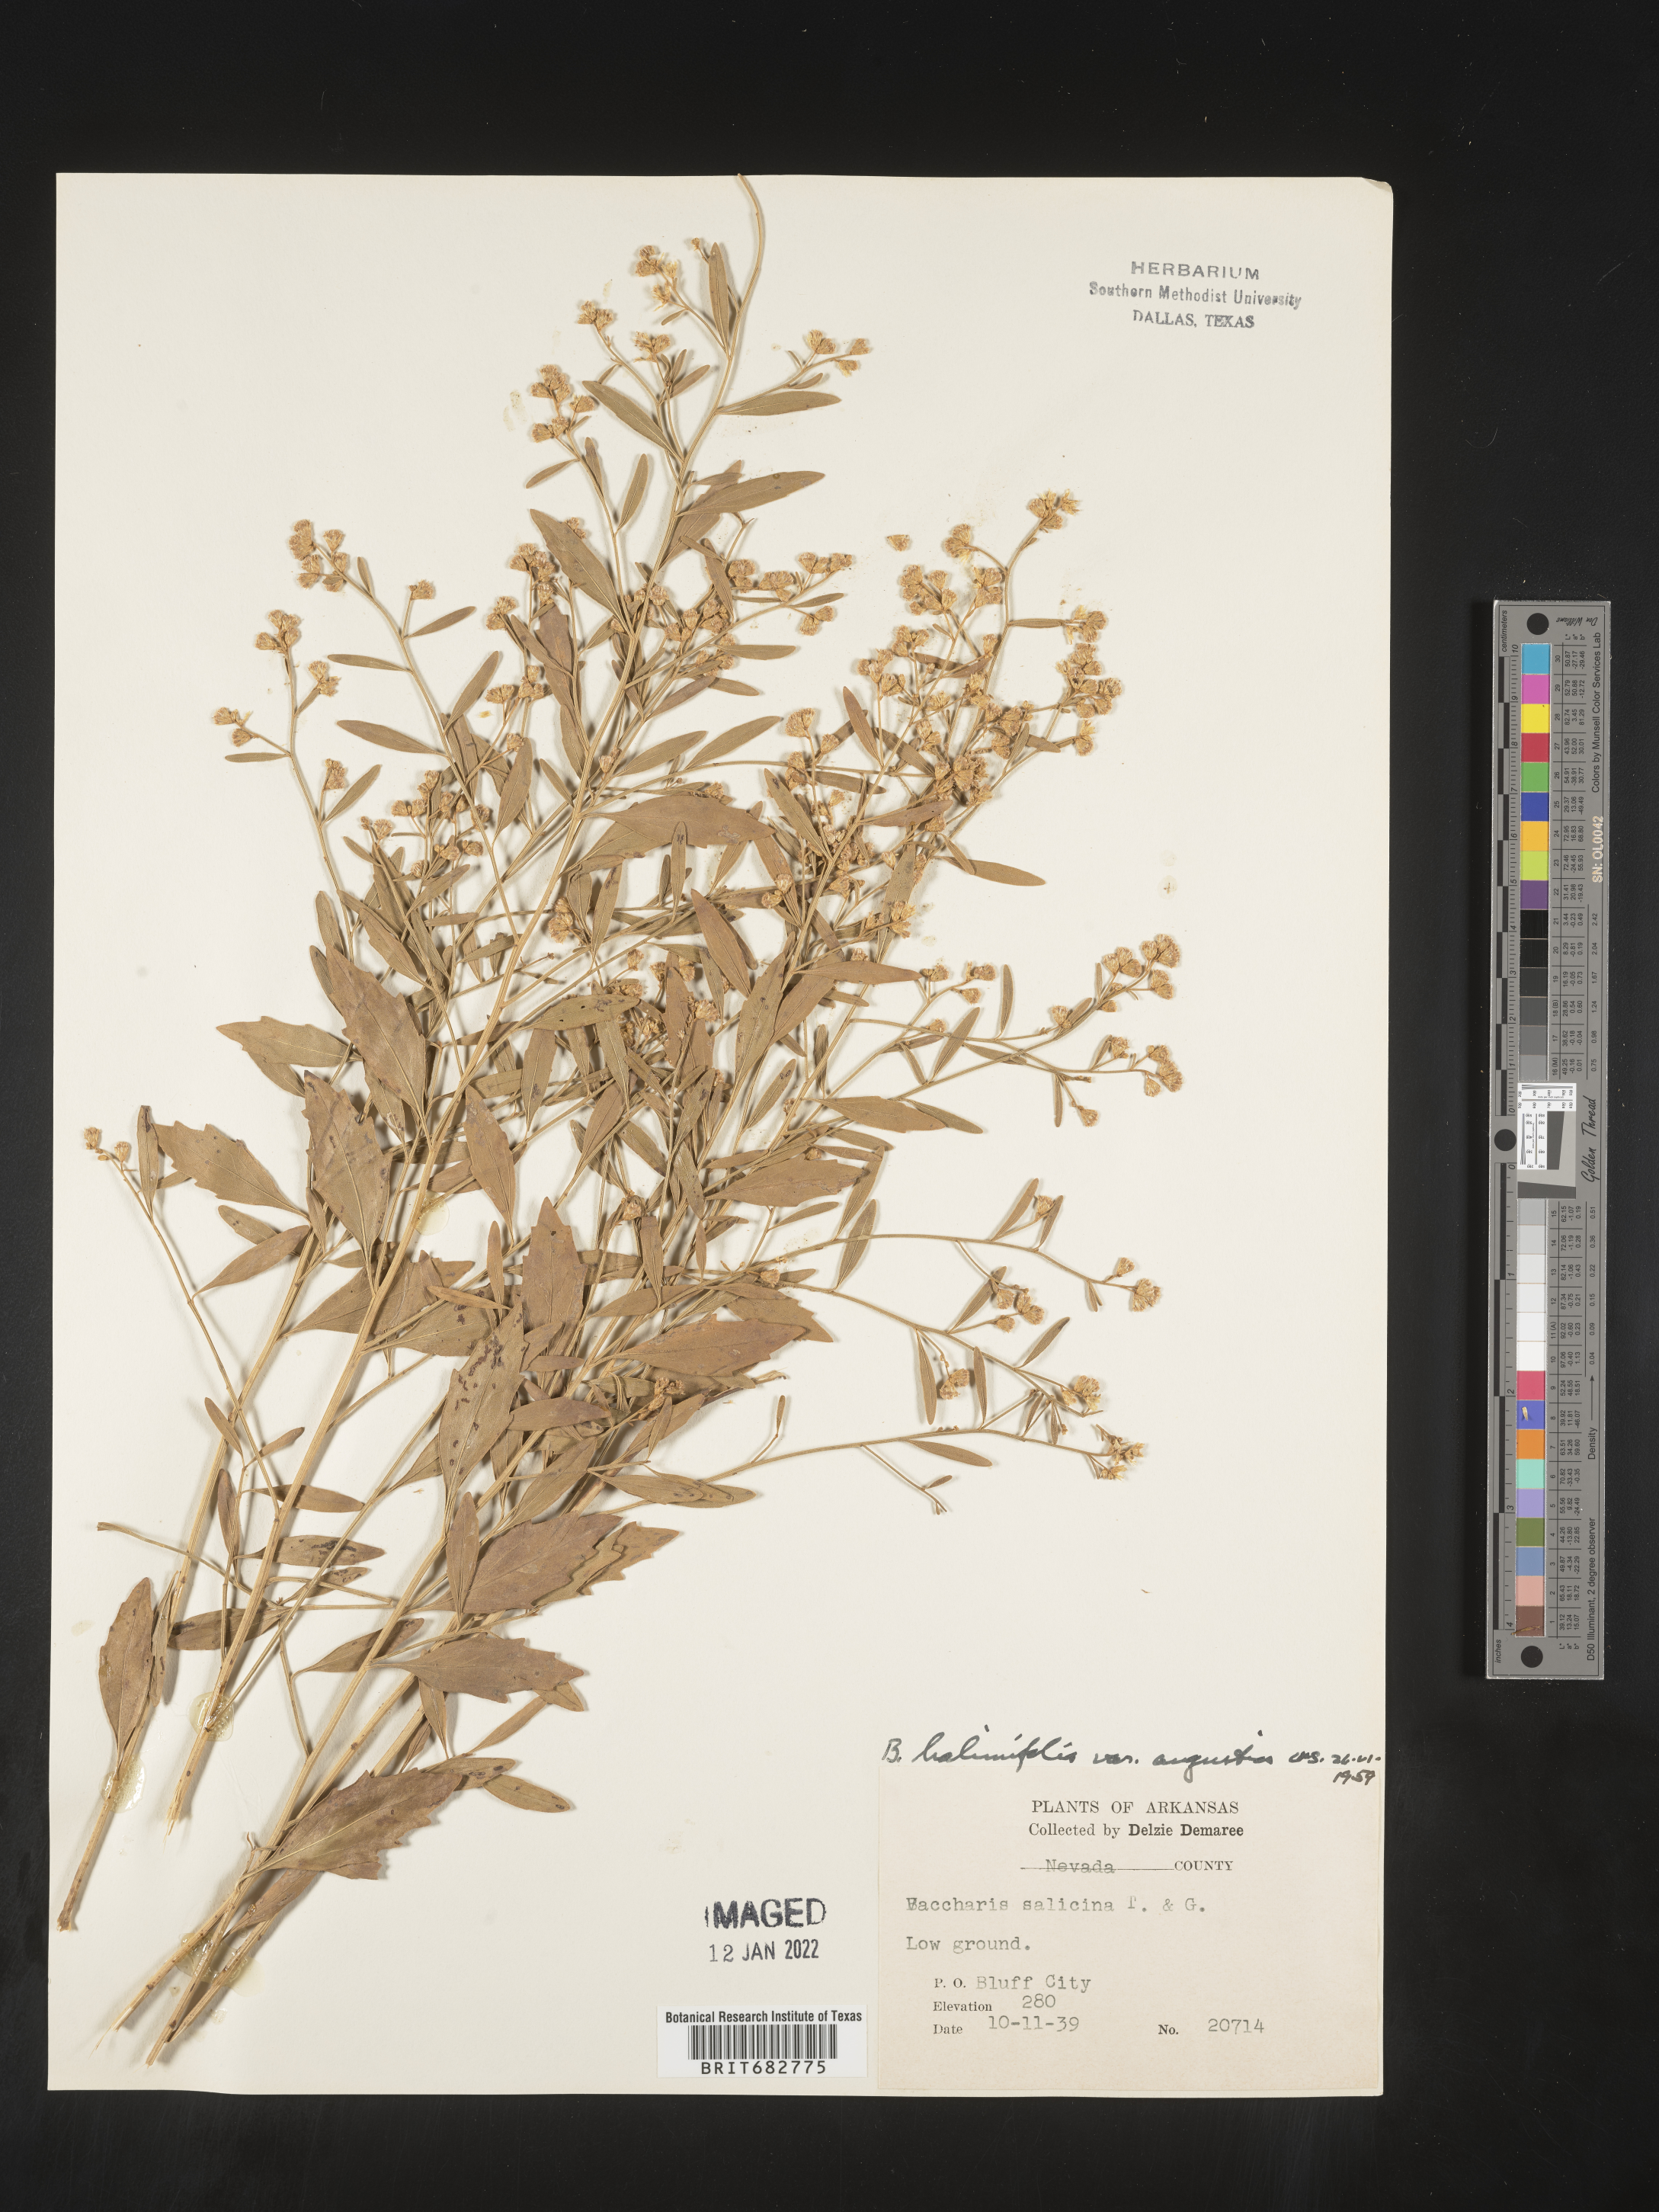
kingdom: Plantae
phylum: Tracheophyta
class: Magnoliopsida
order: Asterales
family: Asteraceae
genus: Nidorella
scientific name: Nidorella ivifolia
